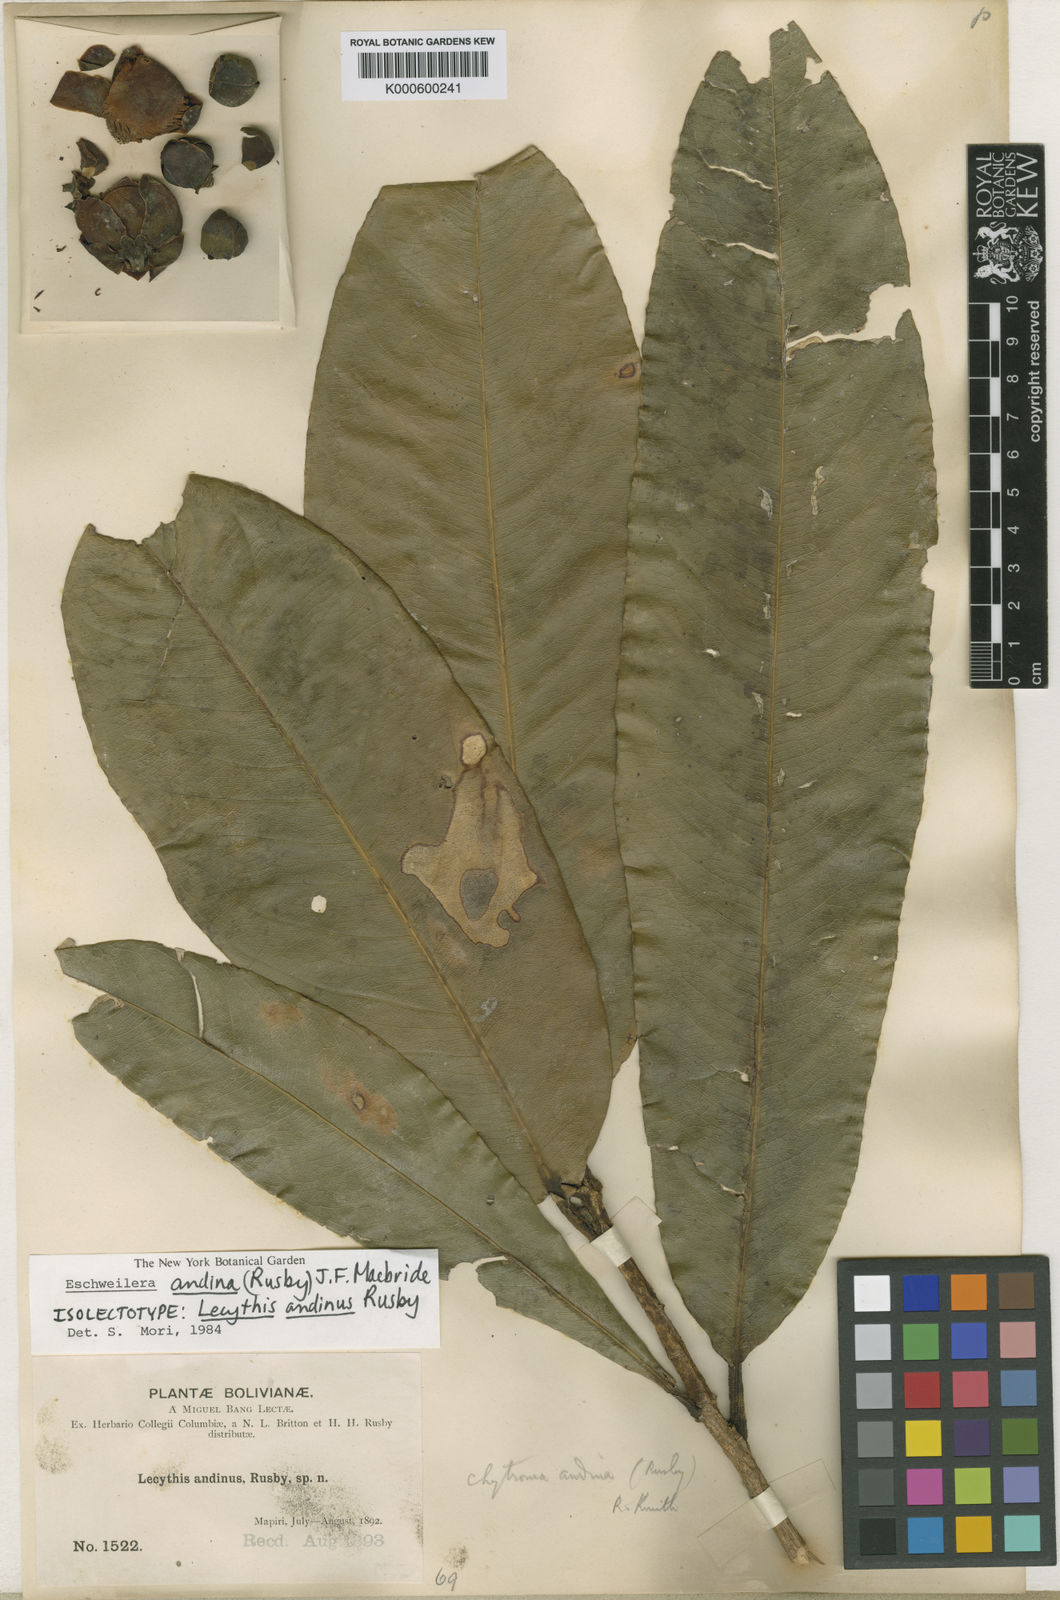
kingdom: Plantae
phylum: Tracheophyta
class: Magnoliopsida
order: Ericales
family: Lecythidaceae
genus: Eschweilera
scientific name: Eschweilera andina
